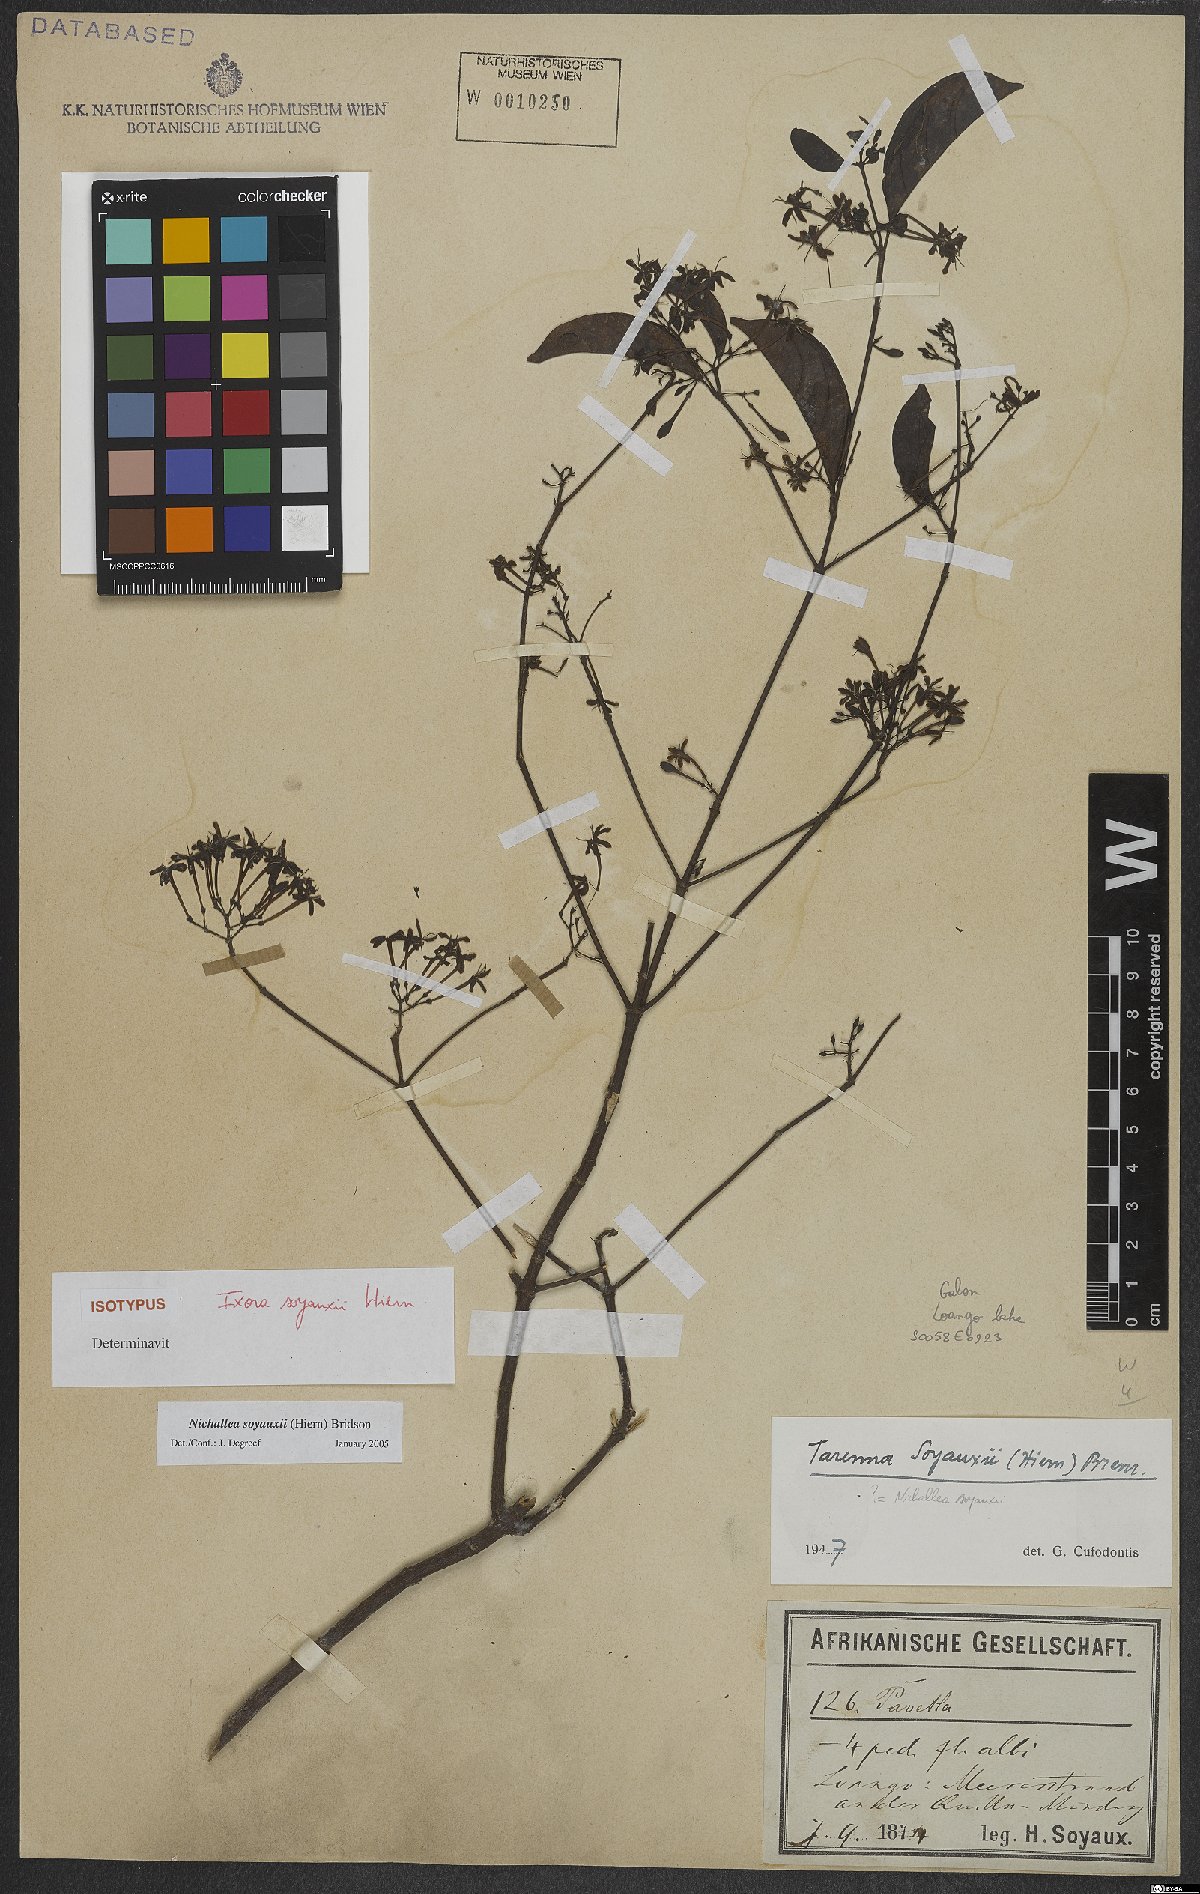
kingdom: Plantae
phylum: Tracheophyta
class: Magnoliopsida
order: Gentianales
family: Rubiaceae
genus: Nichallea
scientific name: Nichallea soyauxii
